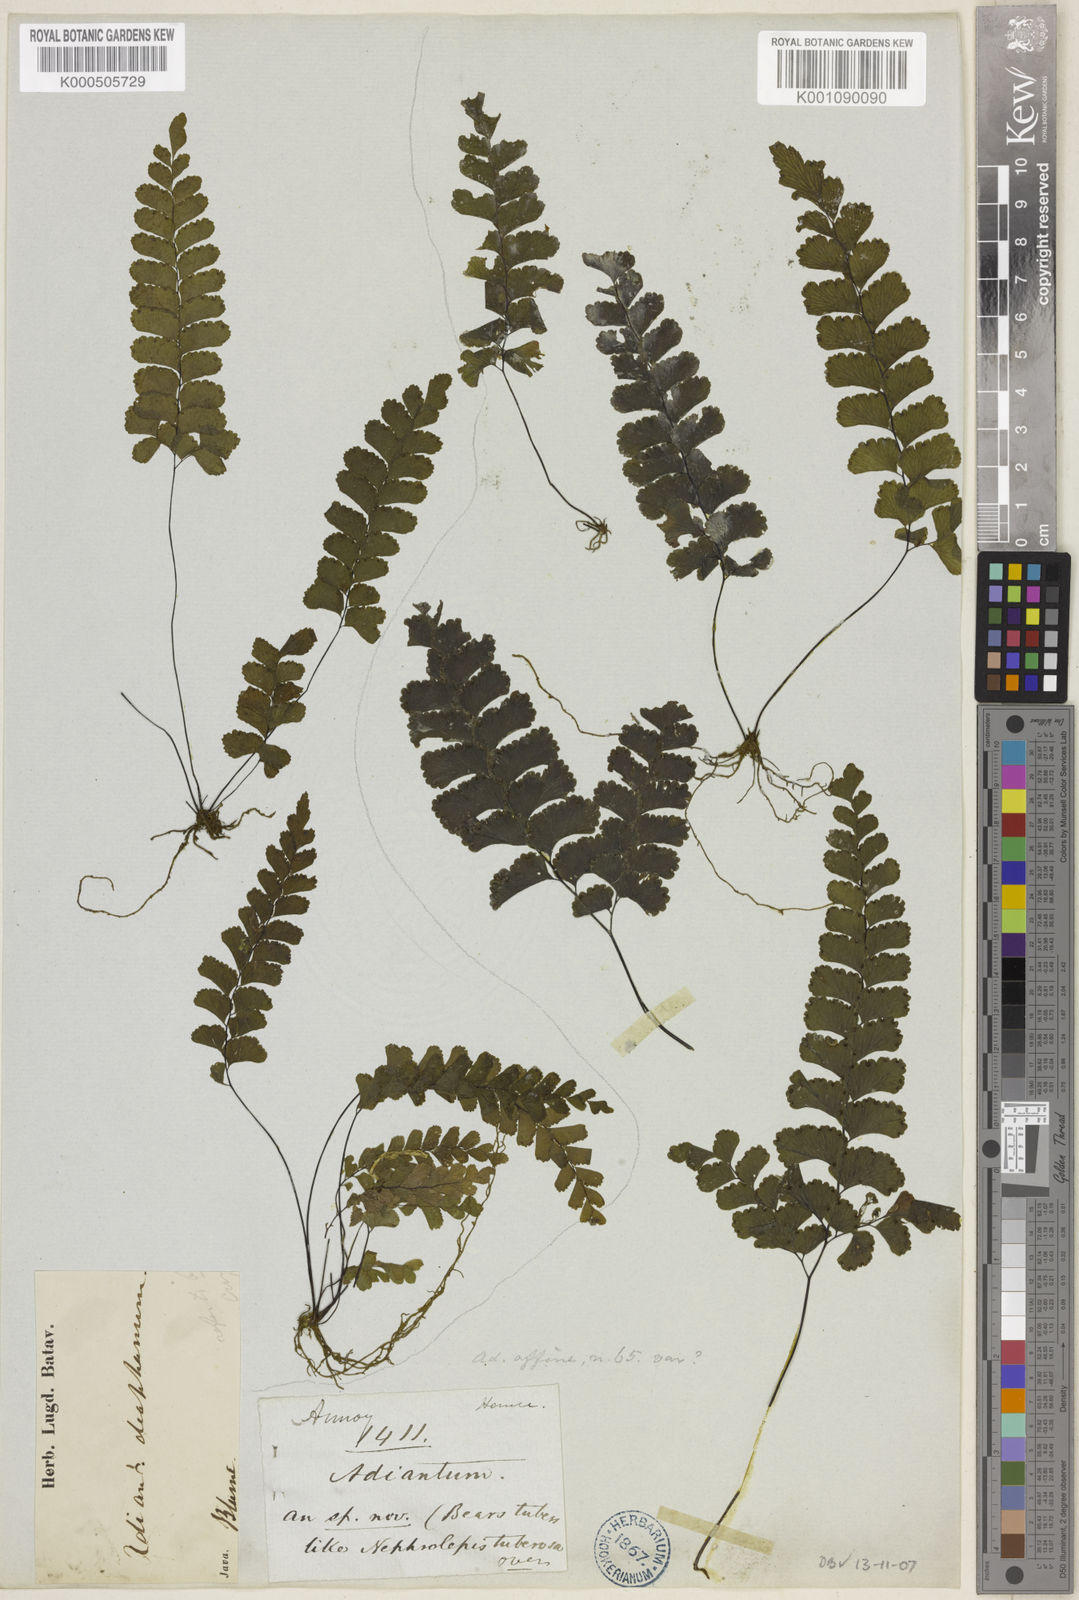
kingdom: Plantae
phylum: Tracheophyta
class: Polypodiopsida
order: Polypodiales
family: Pteridaceae
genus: Adiantum
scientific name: Adiantum diaphanum
